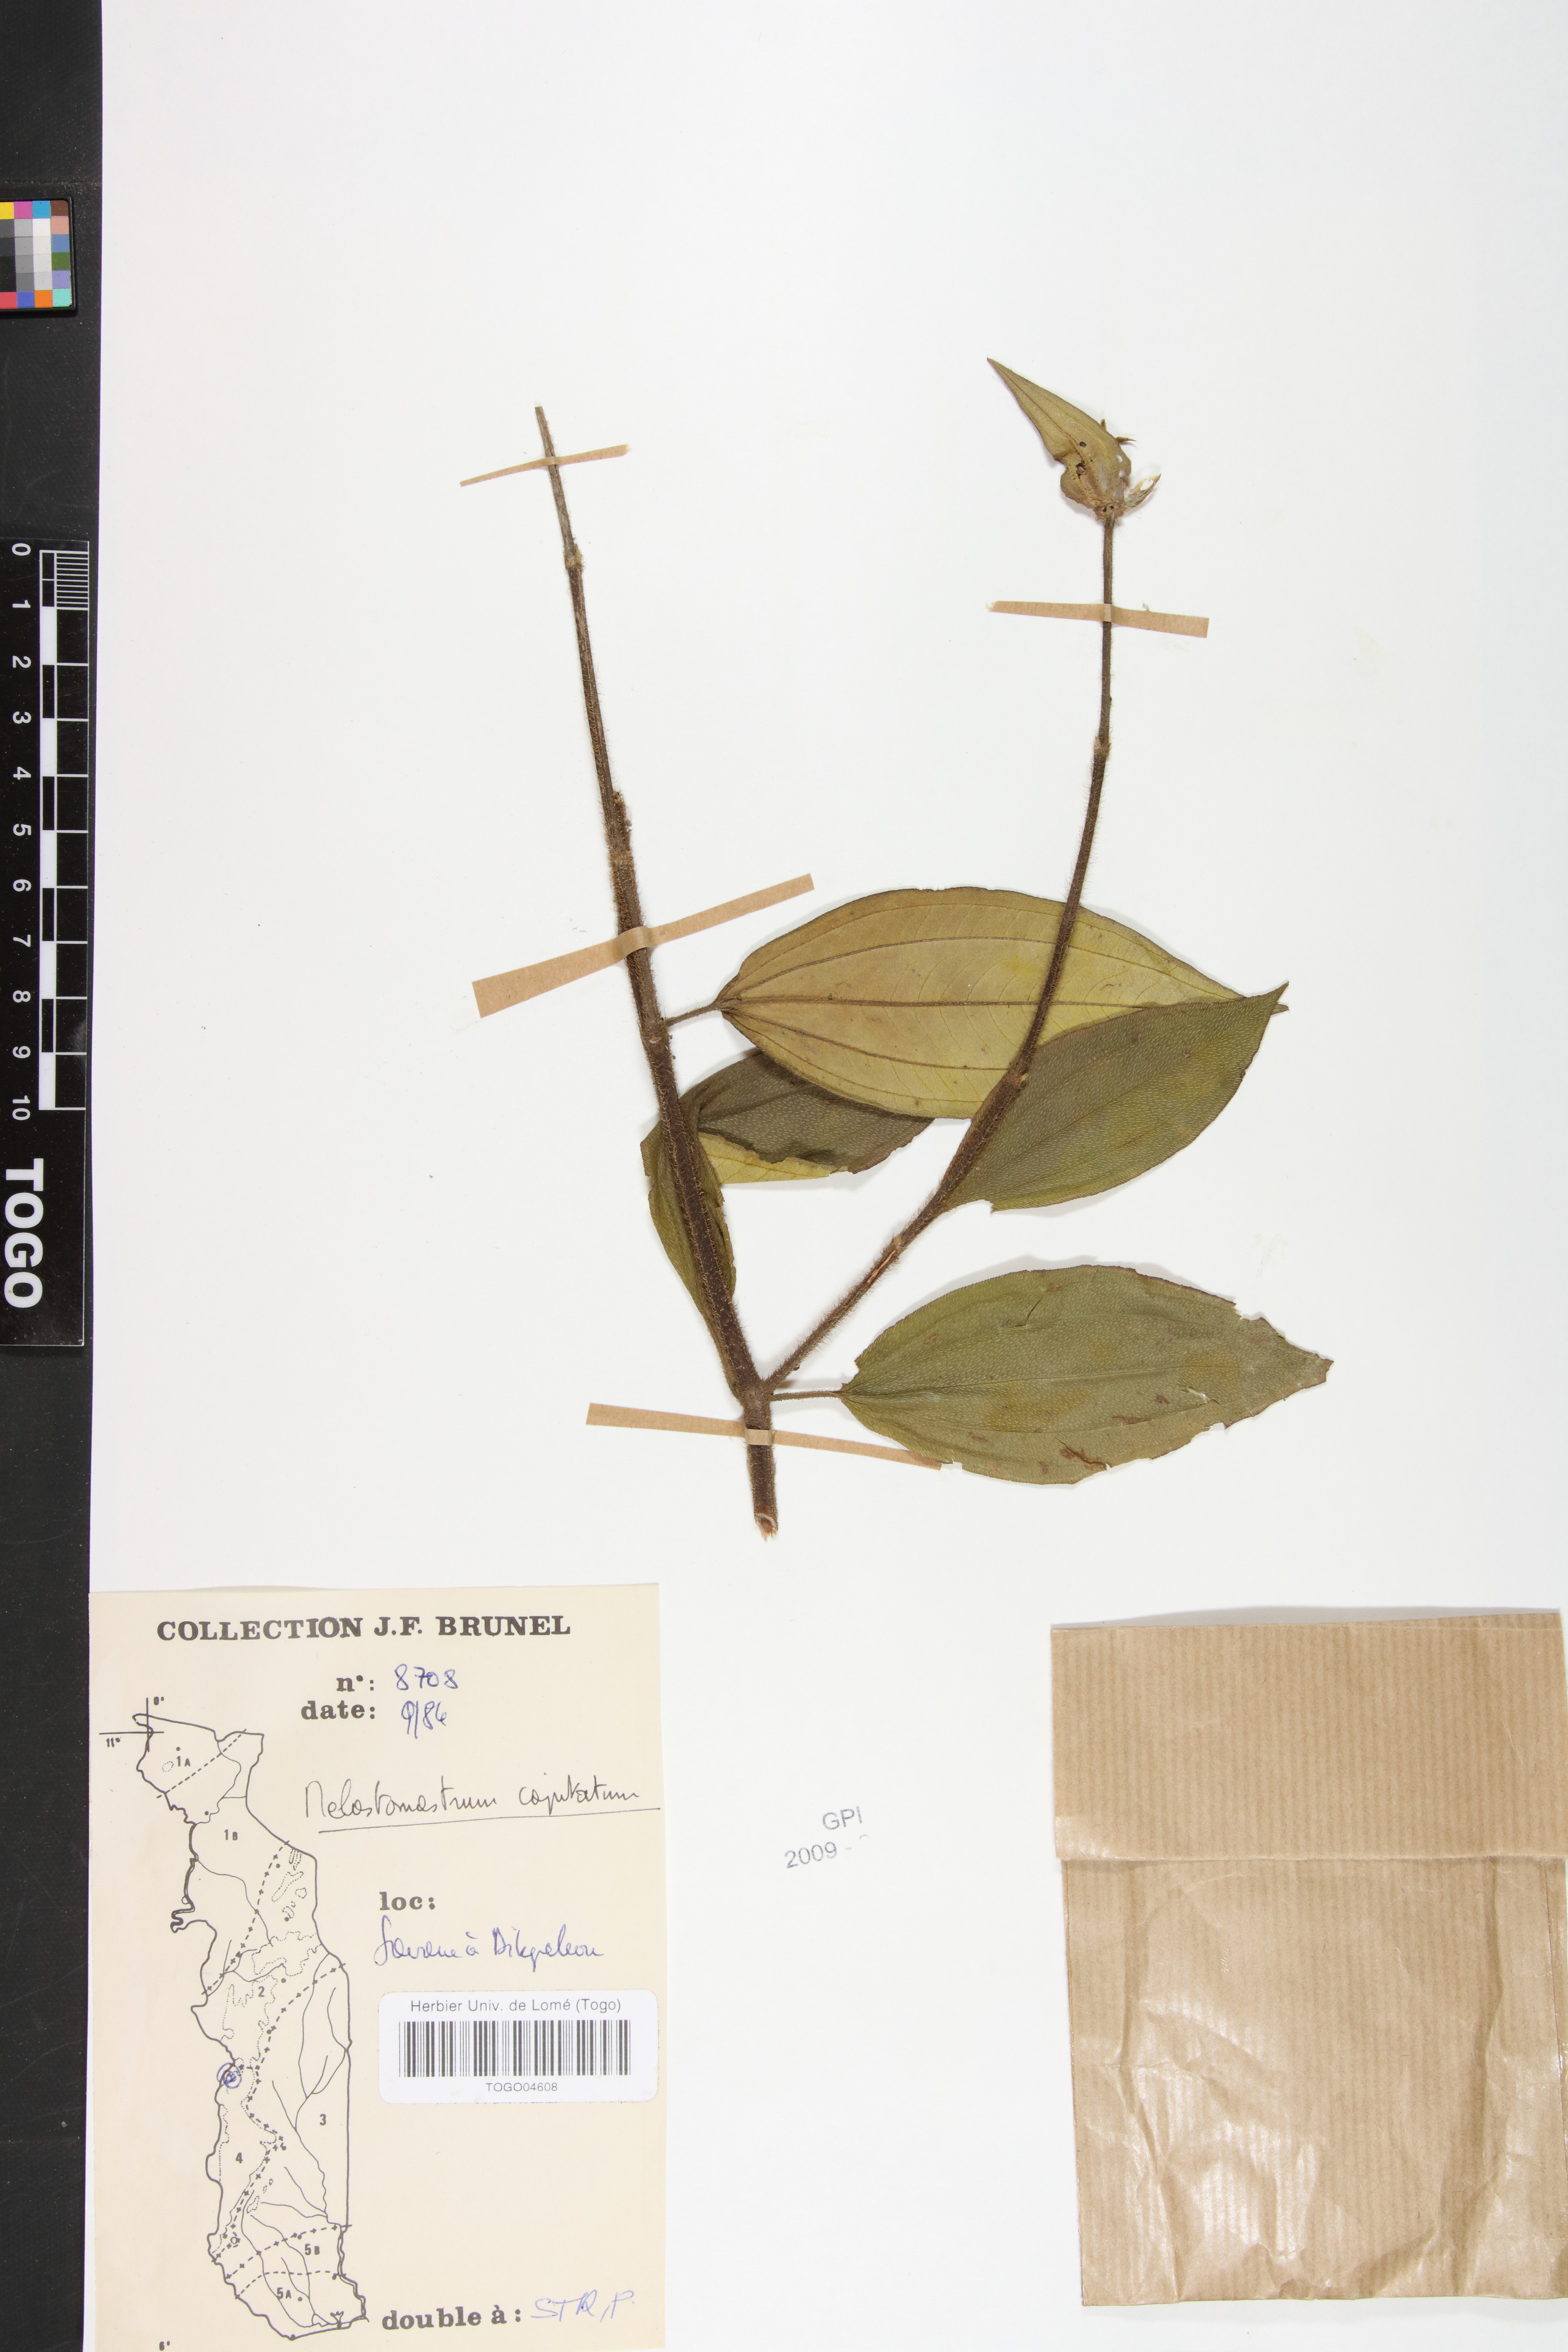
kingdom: Plantae
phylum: Tracheophyta
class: Magnoliopsida
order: Myrtales
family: Melastomataceae
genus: Melastomastrum
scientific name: Melastomastrum capitatum
